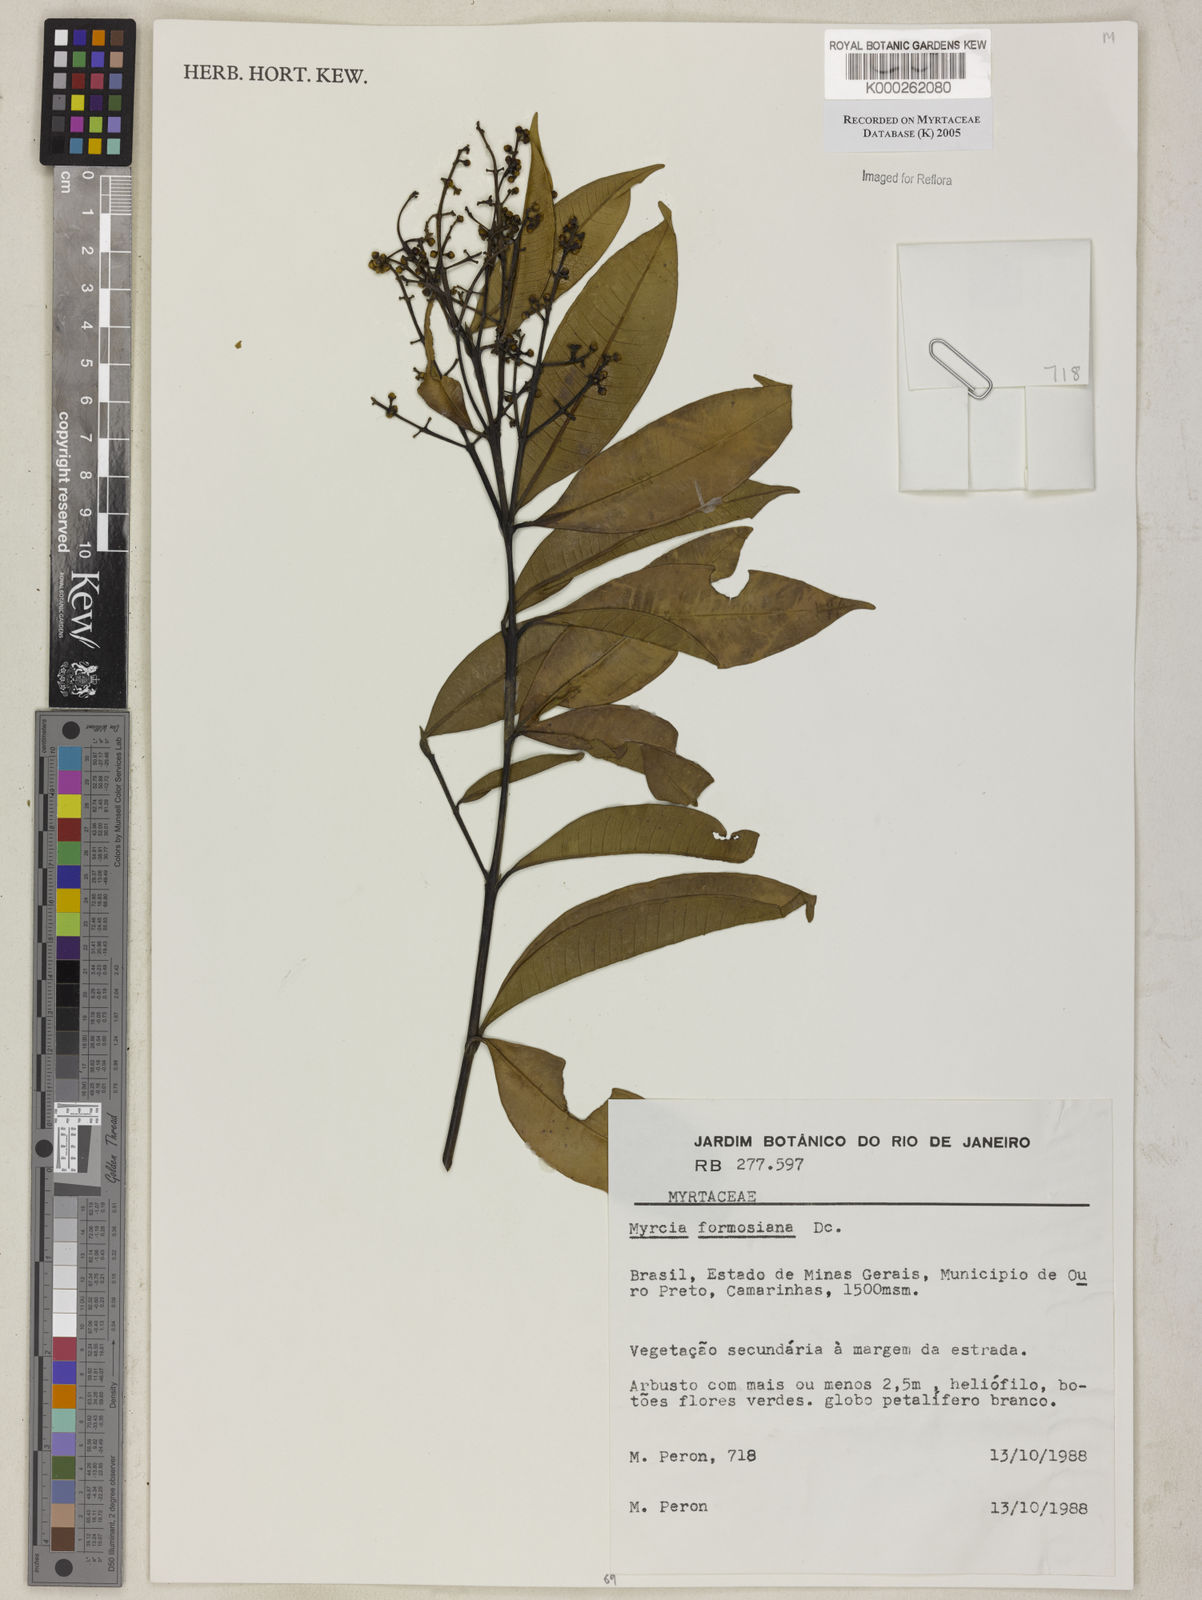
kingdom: Plantae
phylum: Tracheophyta
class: Magnoliopsida
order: Myrtales
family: Myrtaceae
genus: Myrcia
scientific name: Myrcia splendens
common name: Surinam cherry
